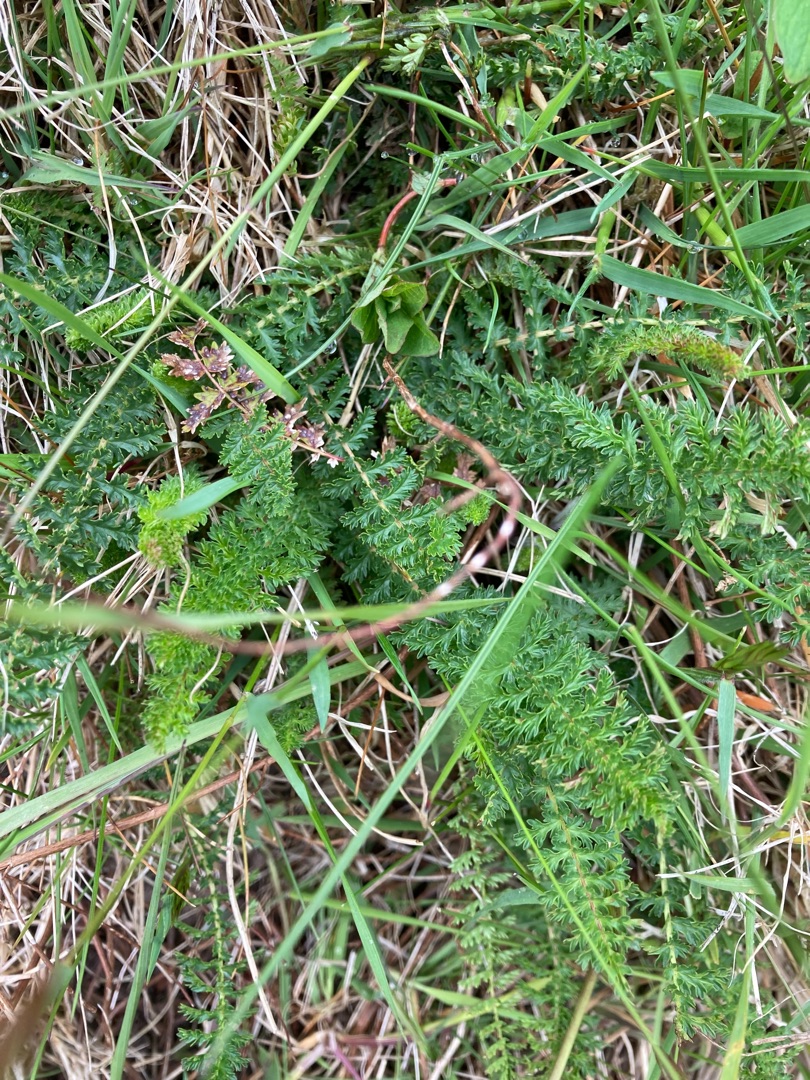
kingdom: Plantae
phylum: Tracheophyta
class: Magnoliopsida
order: Rosales
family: Rosaceae
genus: Filipendula
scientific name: Filipendula vulgaris
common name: Knoldet mjødurt
